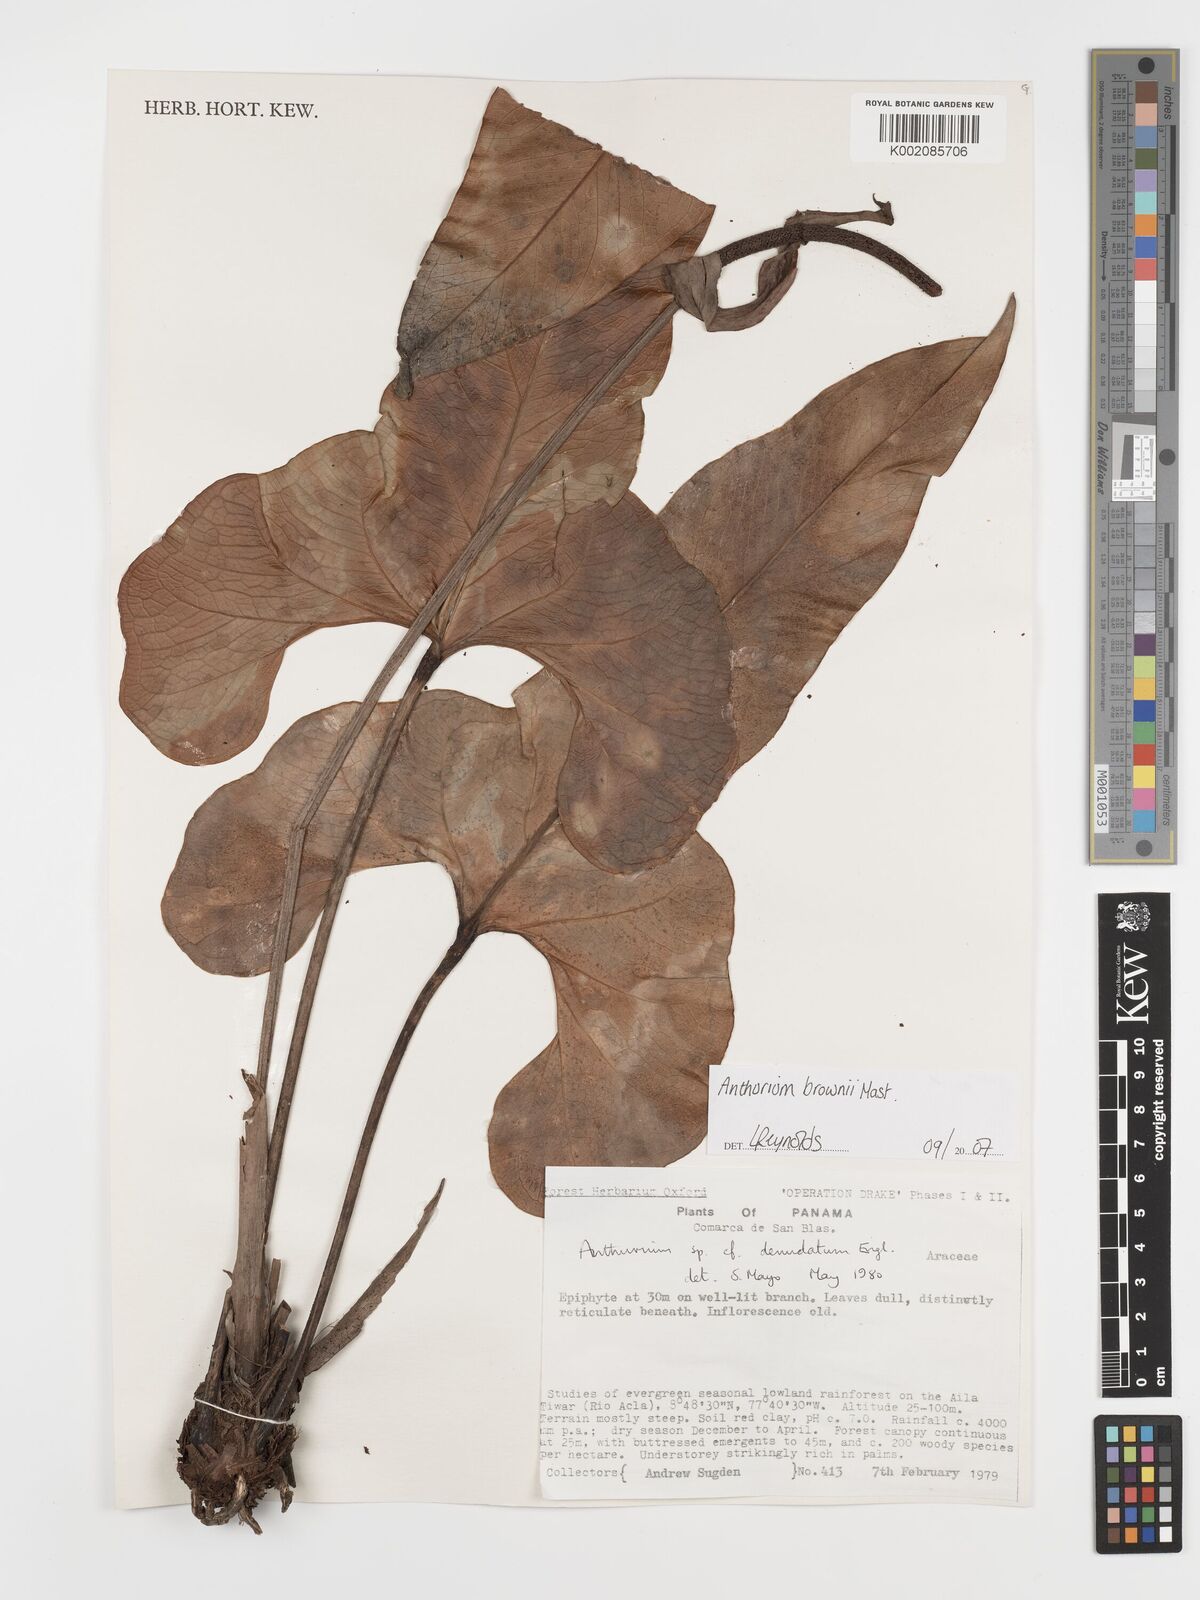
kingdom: Plantae
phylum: Tracheophyta
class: Liliopsida
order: Alismatales
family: Araceae
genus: Anthurium
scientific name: Anthurium brownii
